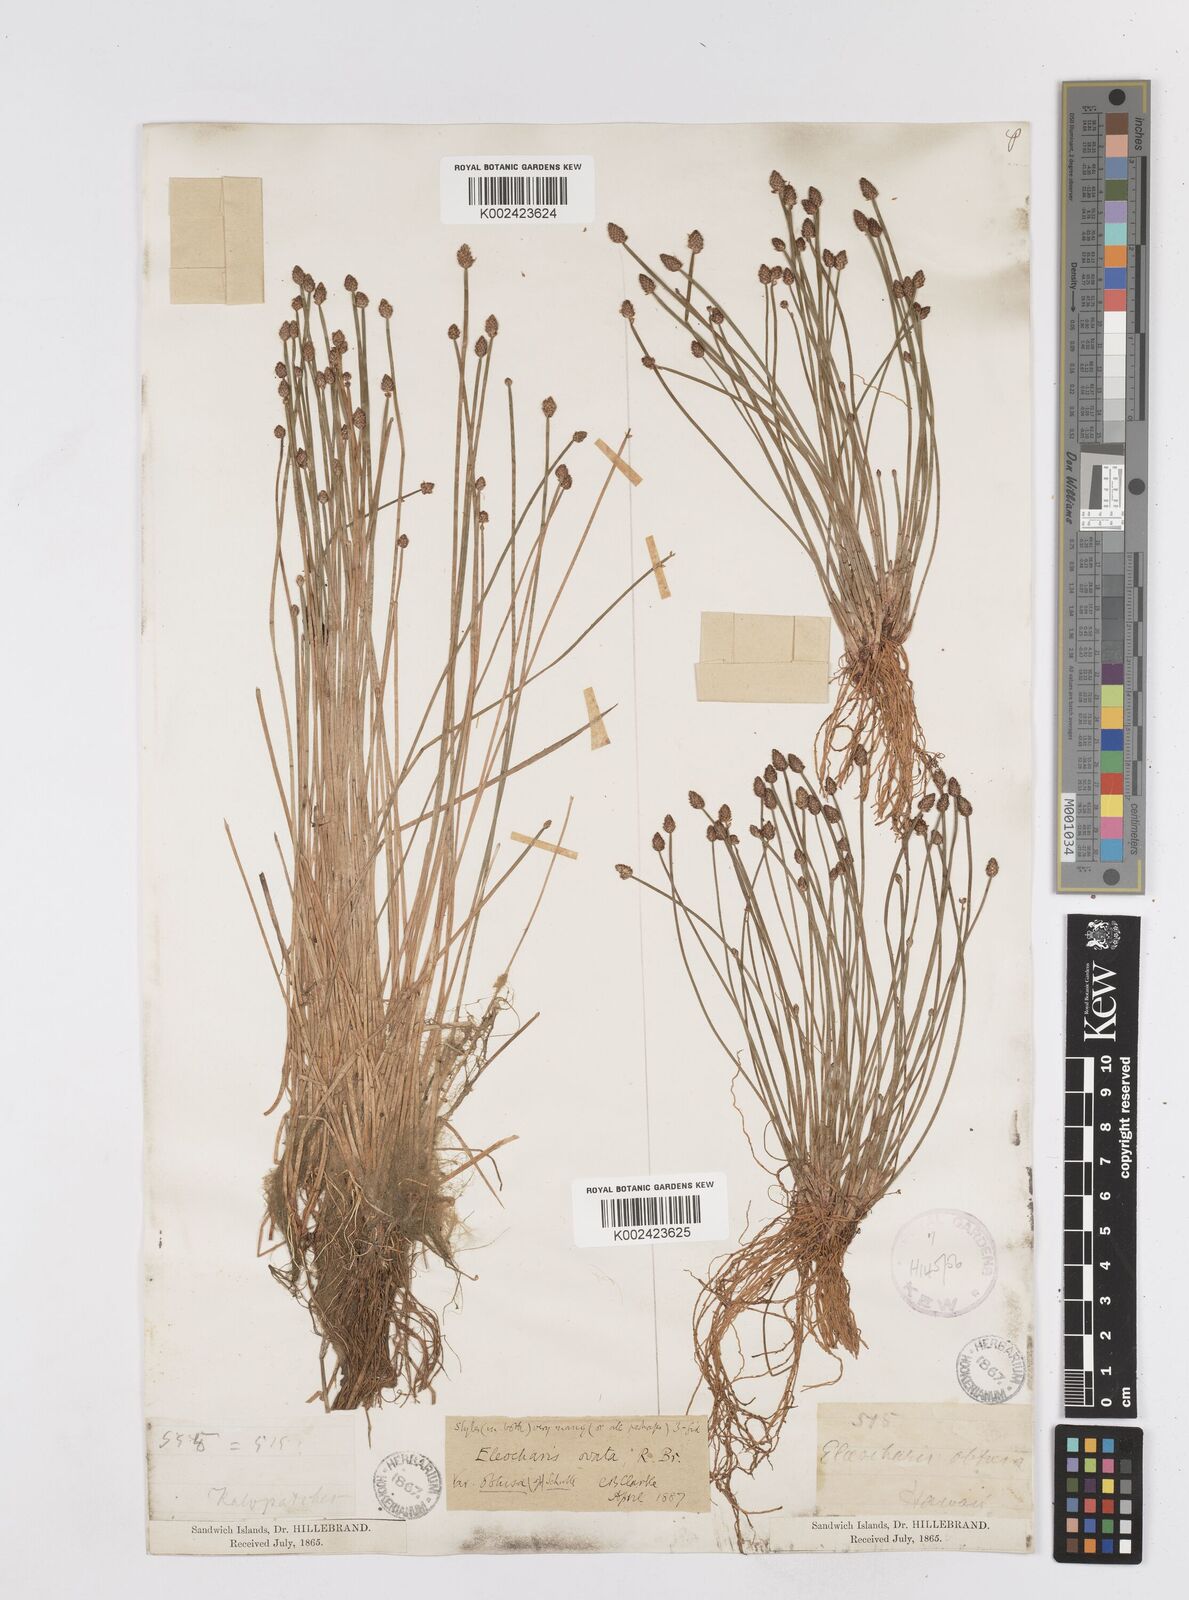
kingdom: Plantae
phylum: Tracheophyta
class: Liliopsida
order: Poales
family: Cyperaceae
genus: Eleocharis
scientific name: Eleocharis obtusa
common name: Blunt spikerush
